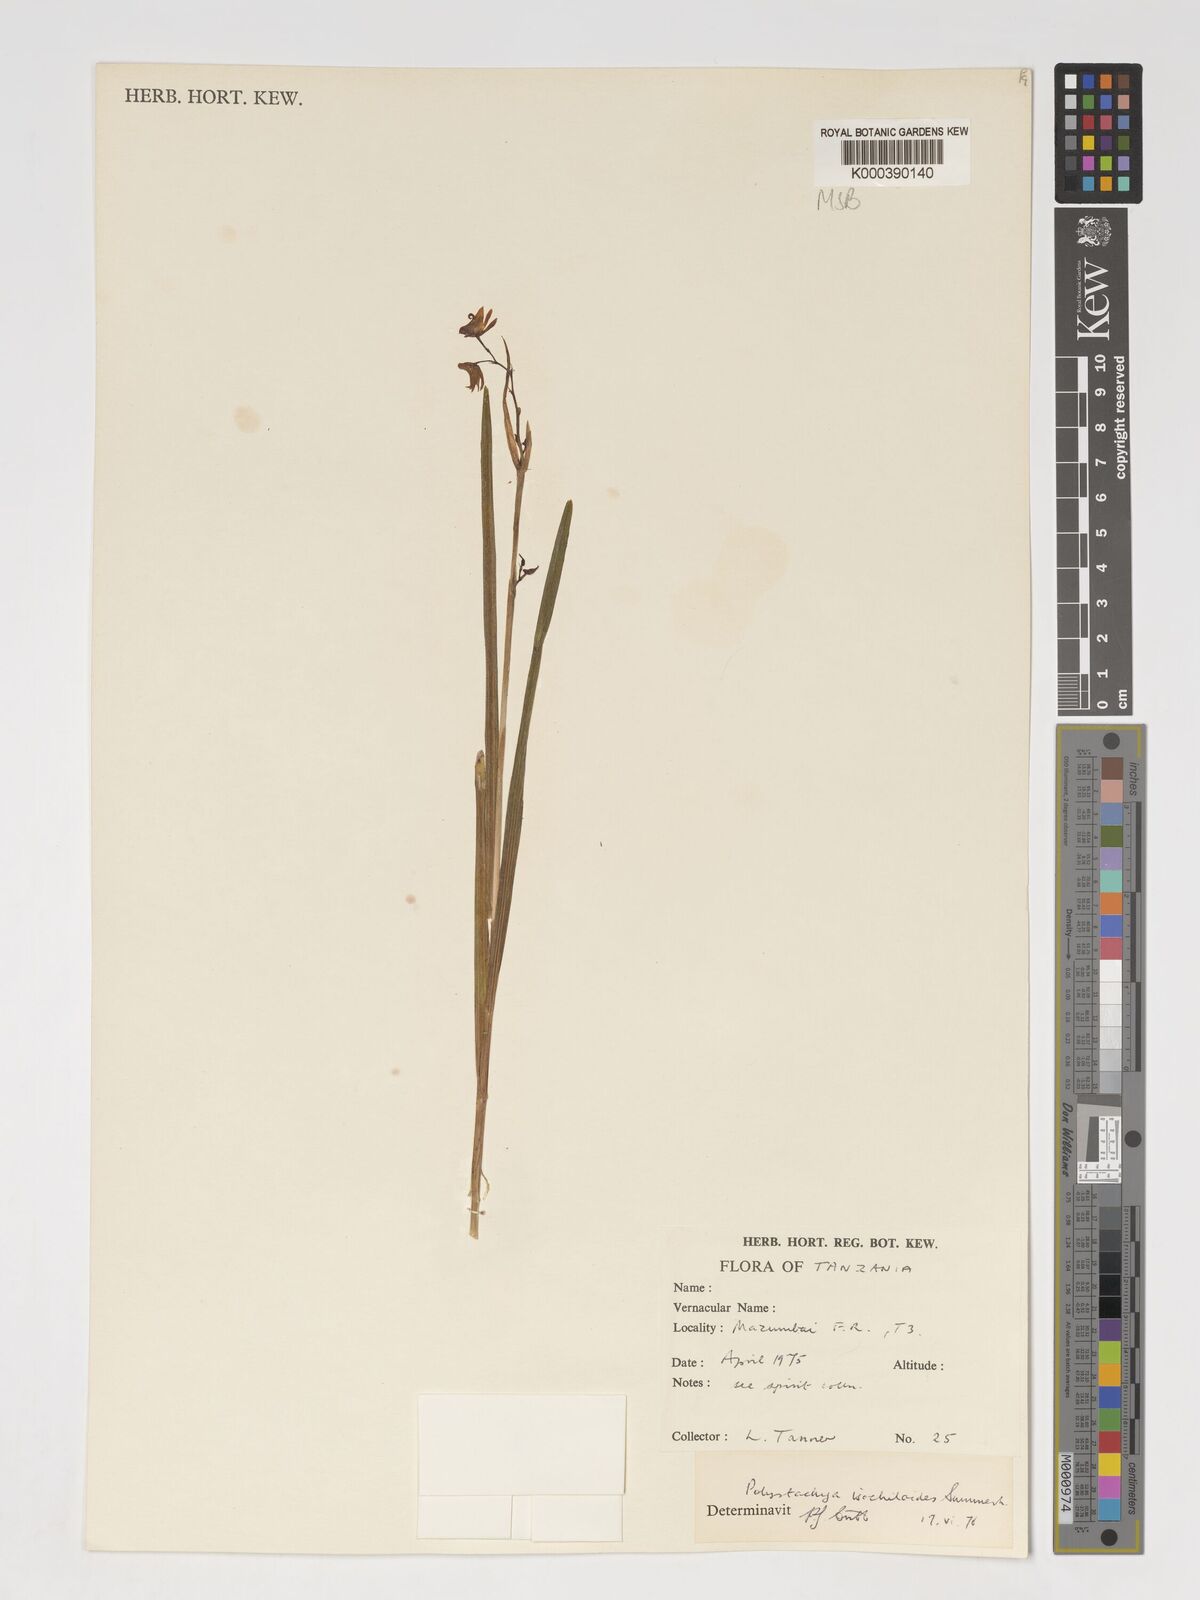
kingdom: Plantae
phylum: Tracheophyta
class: Liliopsida
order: Asparagales
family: Orchidaceae
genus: Polystachya
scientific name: Polystachya isochiloides
